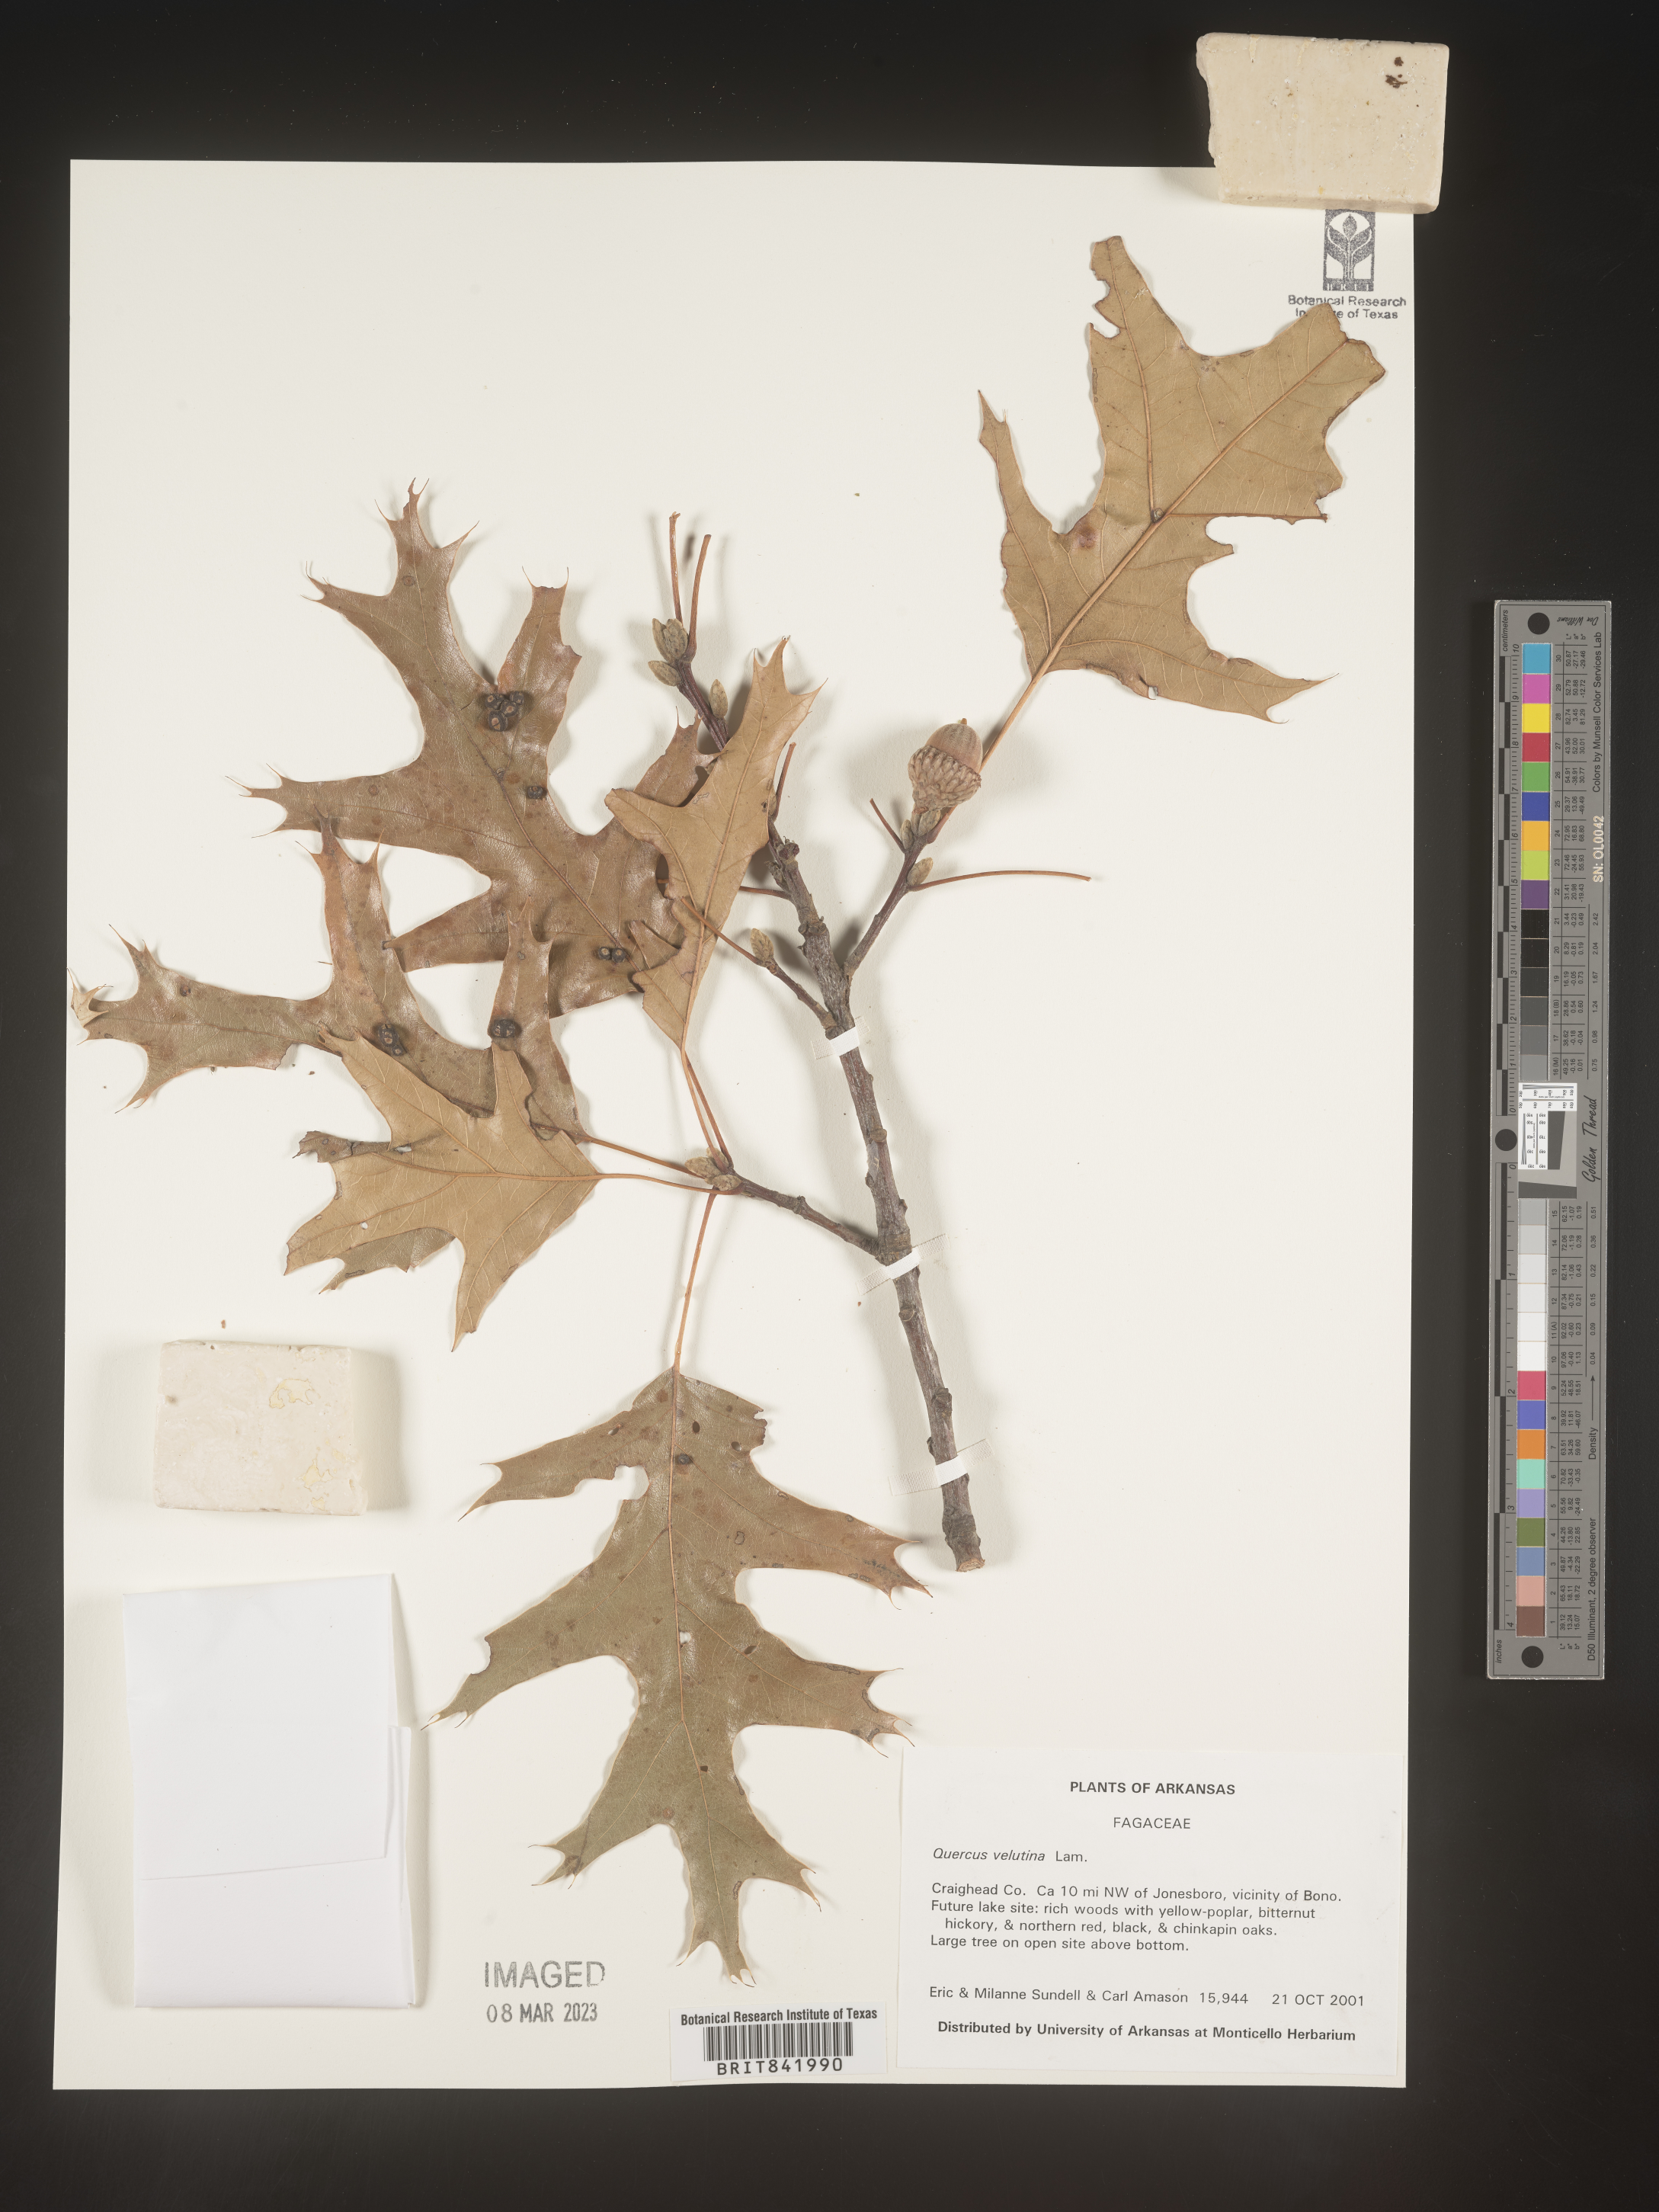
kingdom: Plantae
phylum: Tracheophyta
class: Magnoliopsida
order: Fagales
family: Fagaceae
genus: Quercus
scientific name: Quercus velutina
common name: Black oak
